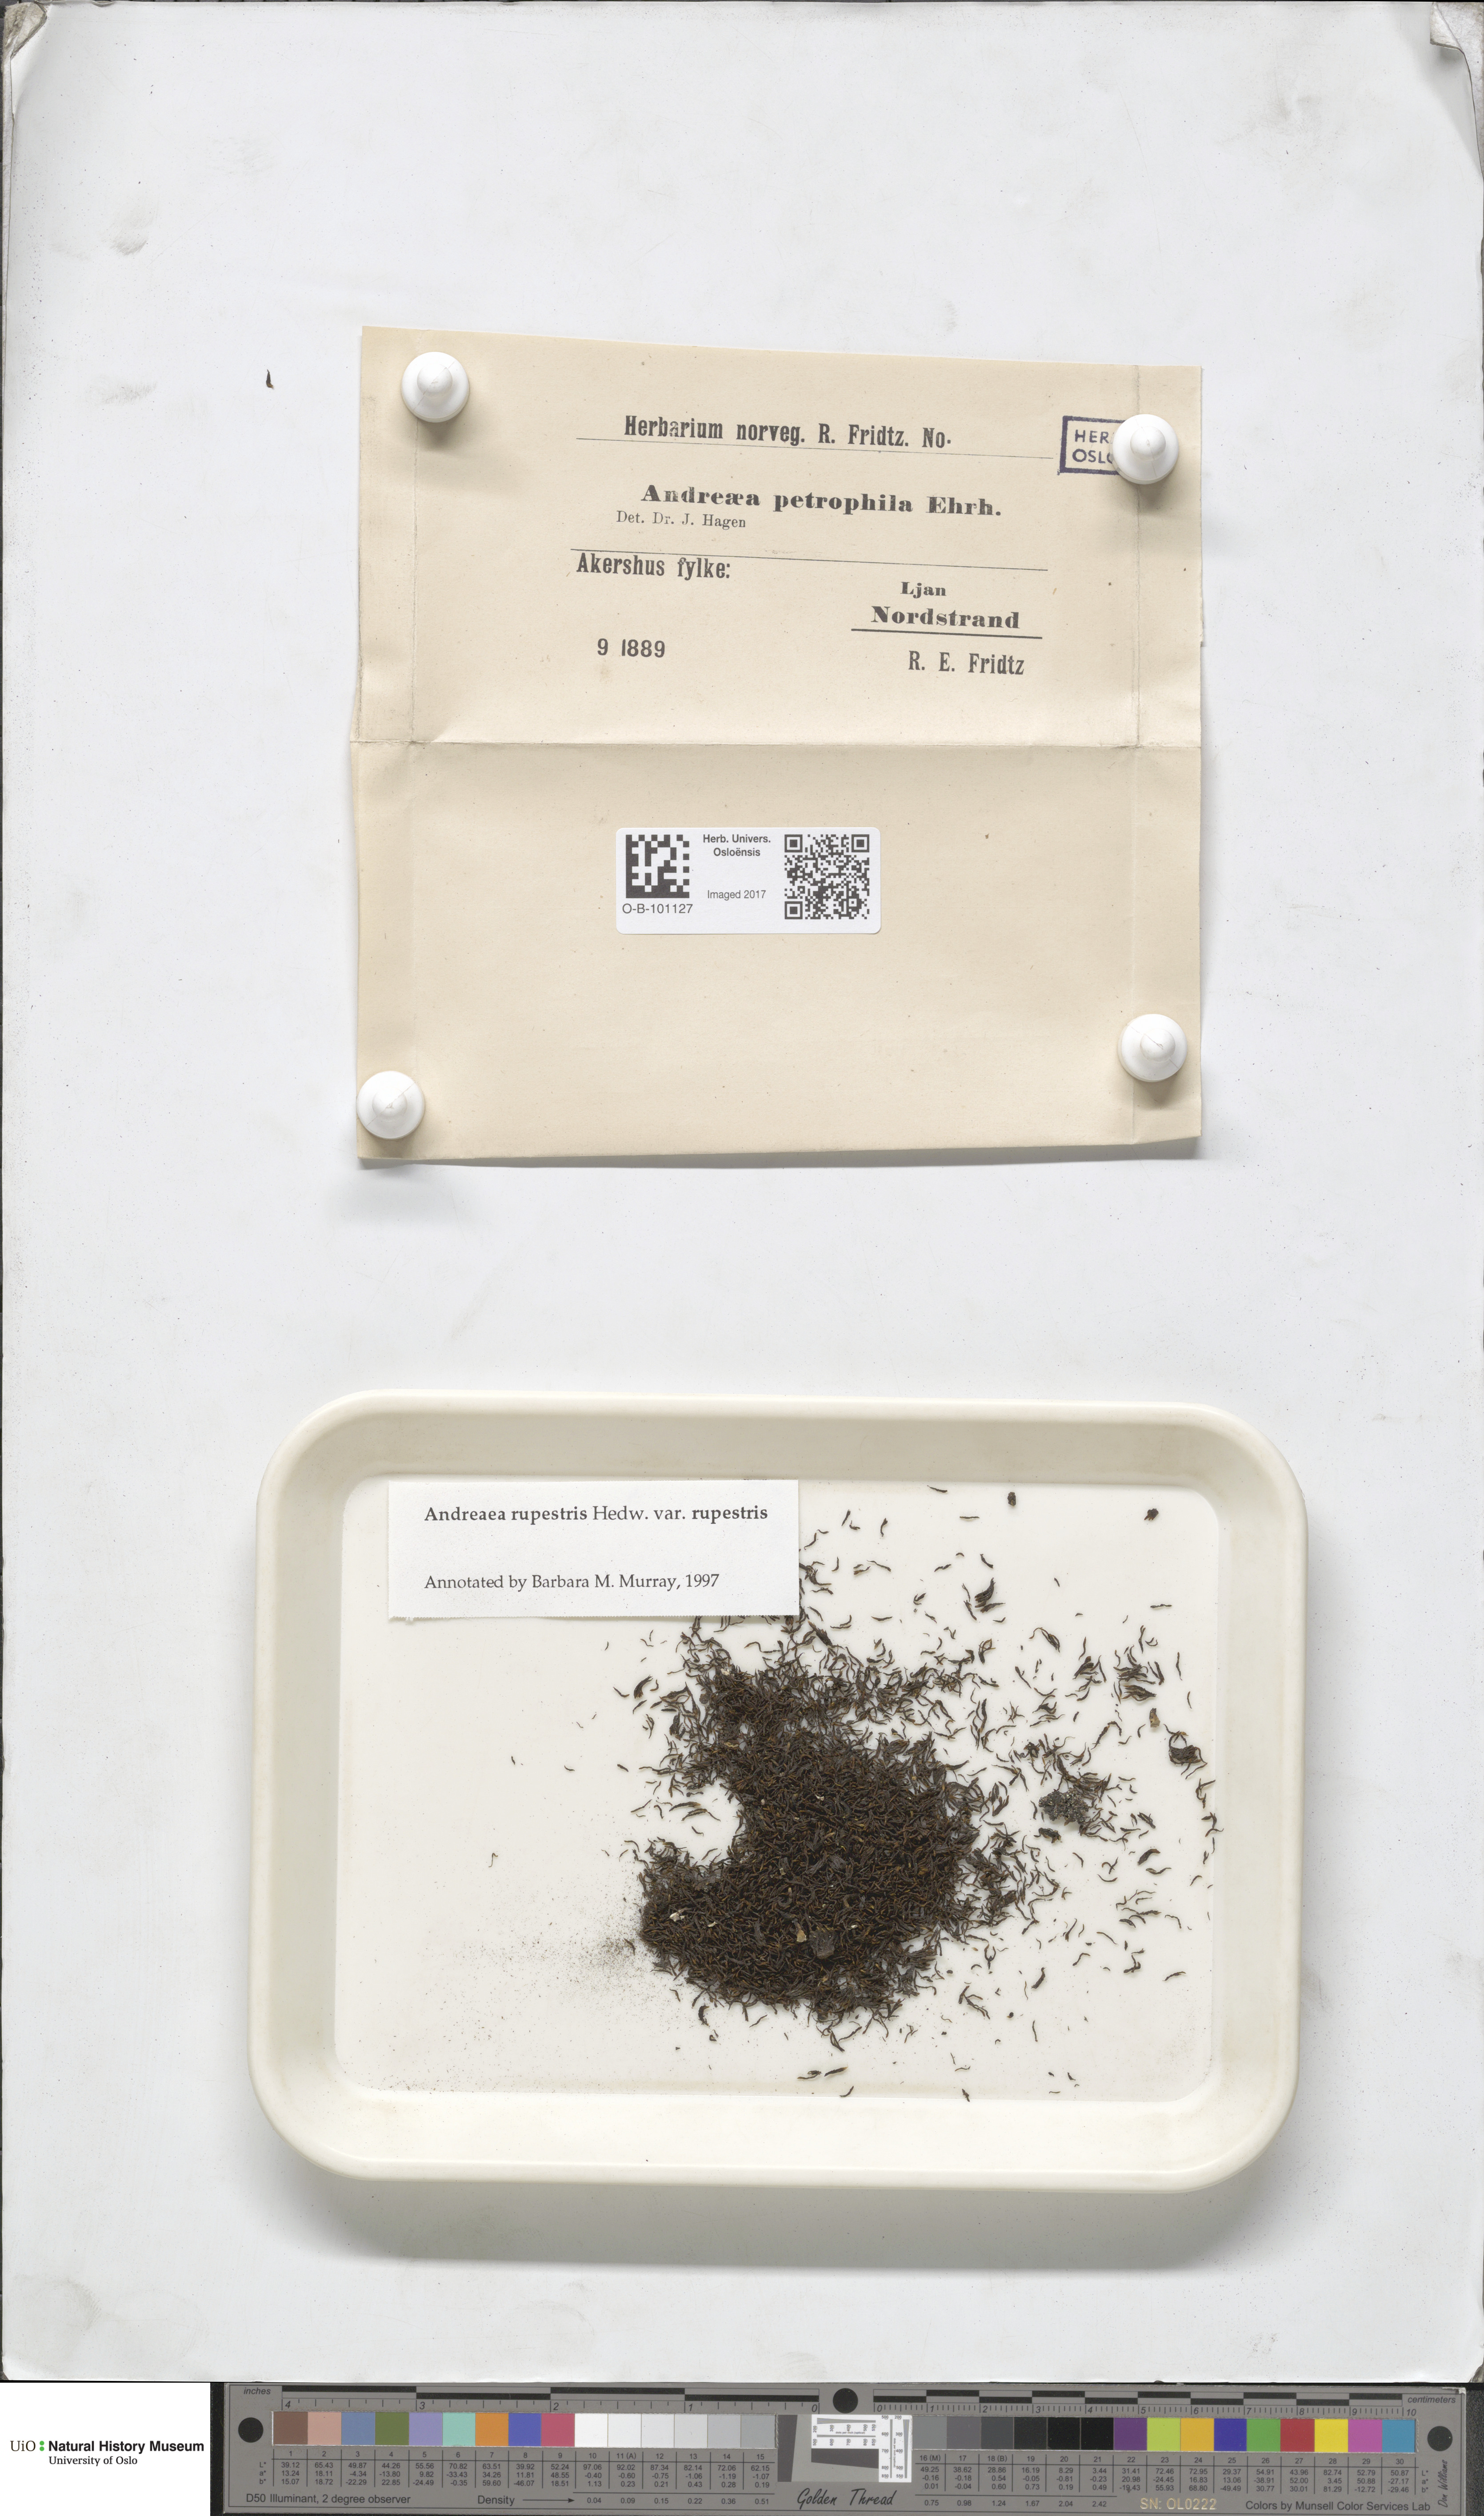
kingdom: Plantae
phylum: Bryophyta
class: Andreaeopsida
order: Andreaeales
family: Andreaeaceae
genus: Andreaea
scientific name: Andreaea rupestris
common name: Black rock moss
